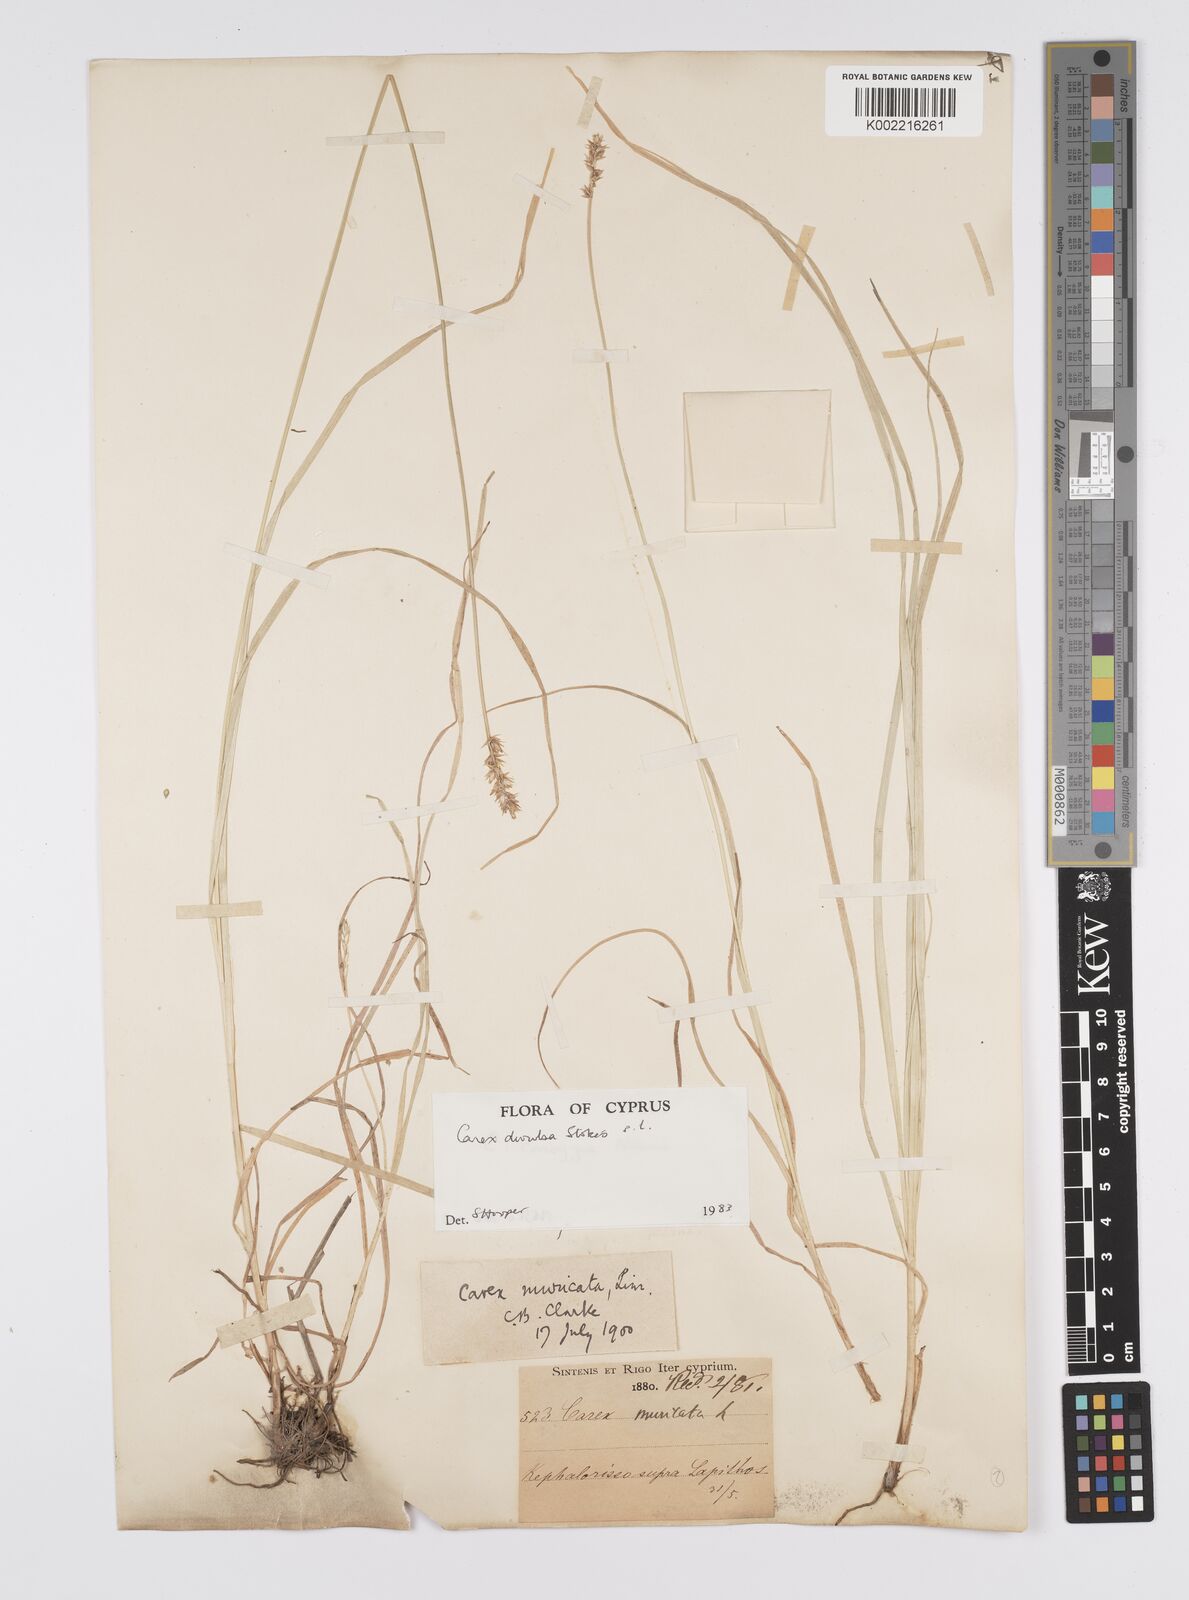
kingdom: Plantae
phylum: Tracheophyta
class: Liliopsida
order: Poales
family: Cyperaceae
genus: Carex
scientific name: Carex divulsa
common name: Grassland sedge
